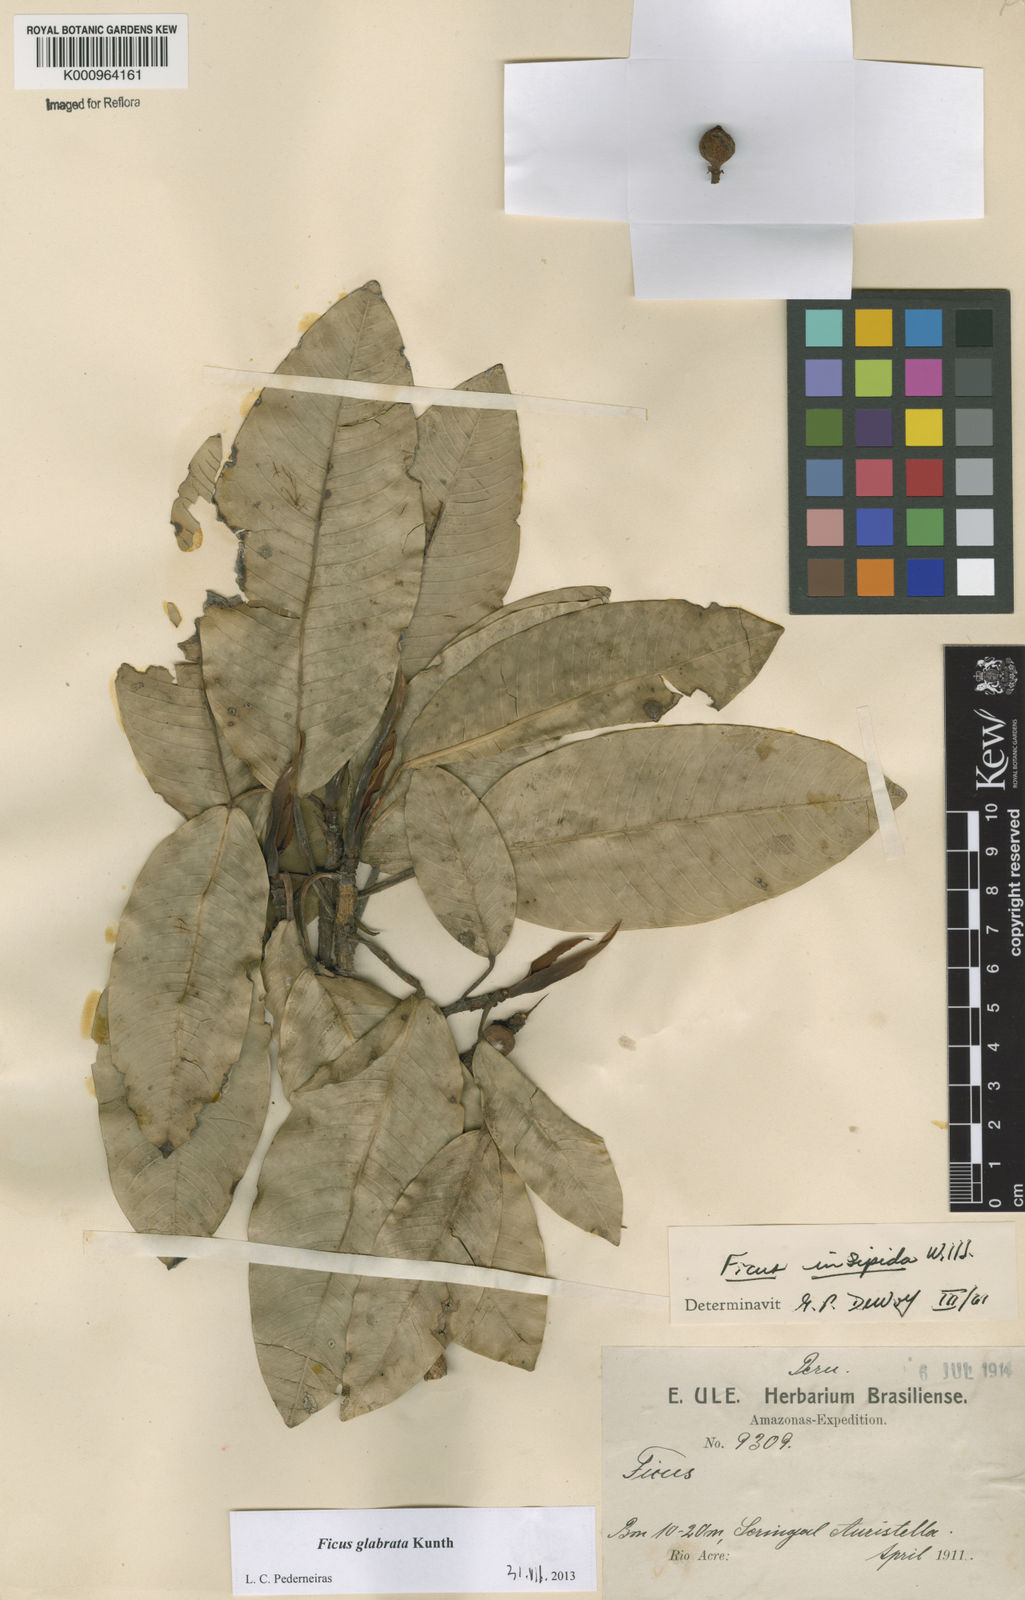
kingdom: Plantae
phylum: Tracheophyta
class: Magnoliopsida
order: Rosales
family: Moraceae
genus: Ficus
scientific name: Ficus insipida
